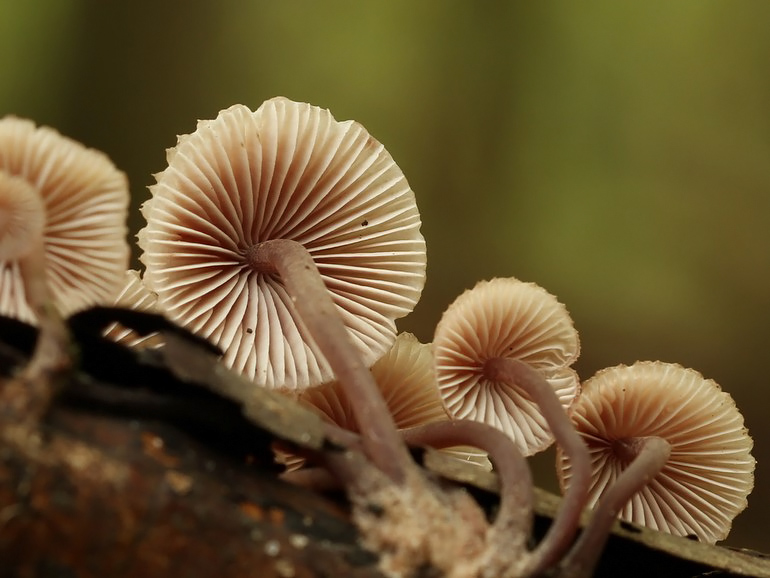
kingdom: Fungi
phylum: Basidiomycota
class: Agaricomycetes
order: Agaricales
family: Mycenaceae
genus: Mycena
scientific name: Mycena haematopus
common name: blødende huesvamp
